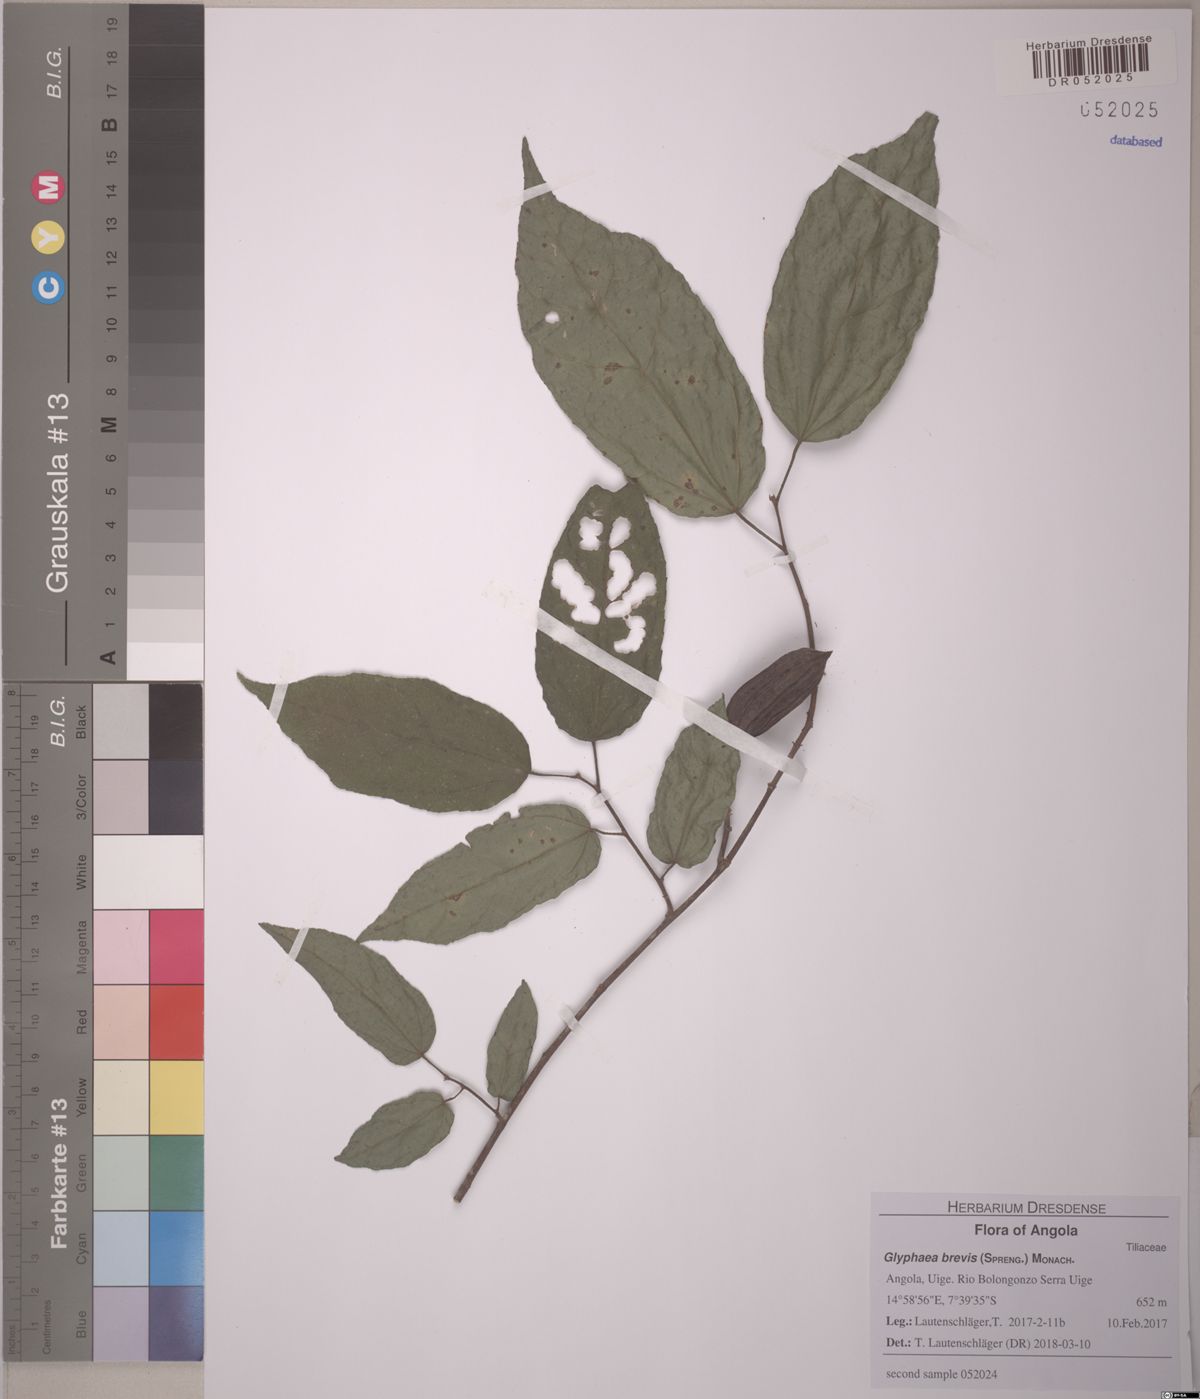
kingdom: Plantae
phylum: Tracheophyta
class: Magnoliopsida
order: Malvales
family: Malvaceae
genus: Glyphaea
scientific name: Glyphaea brevis
